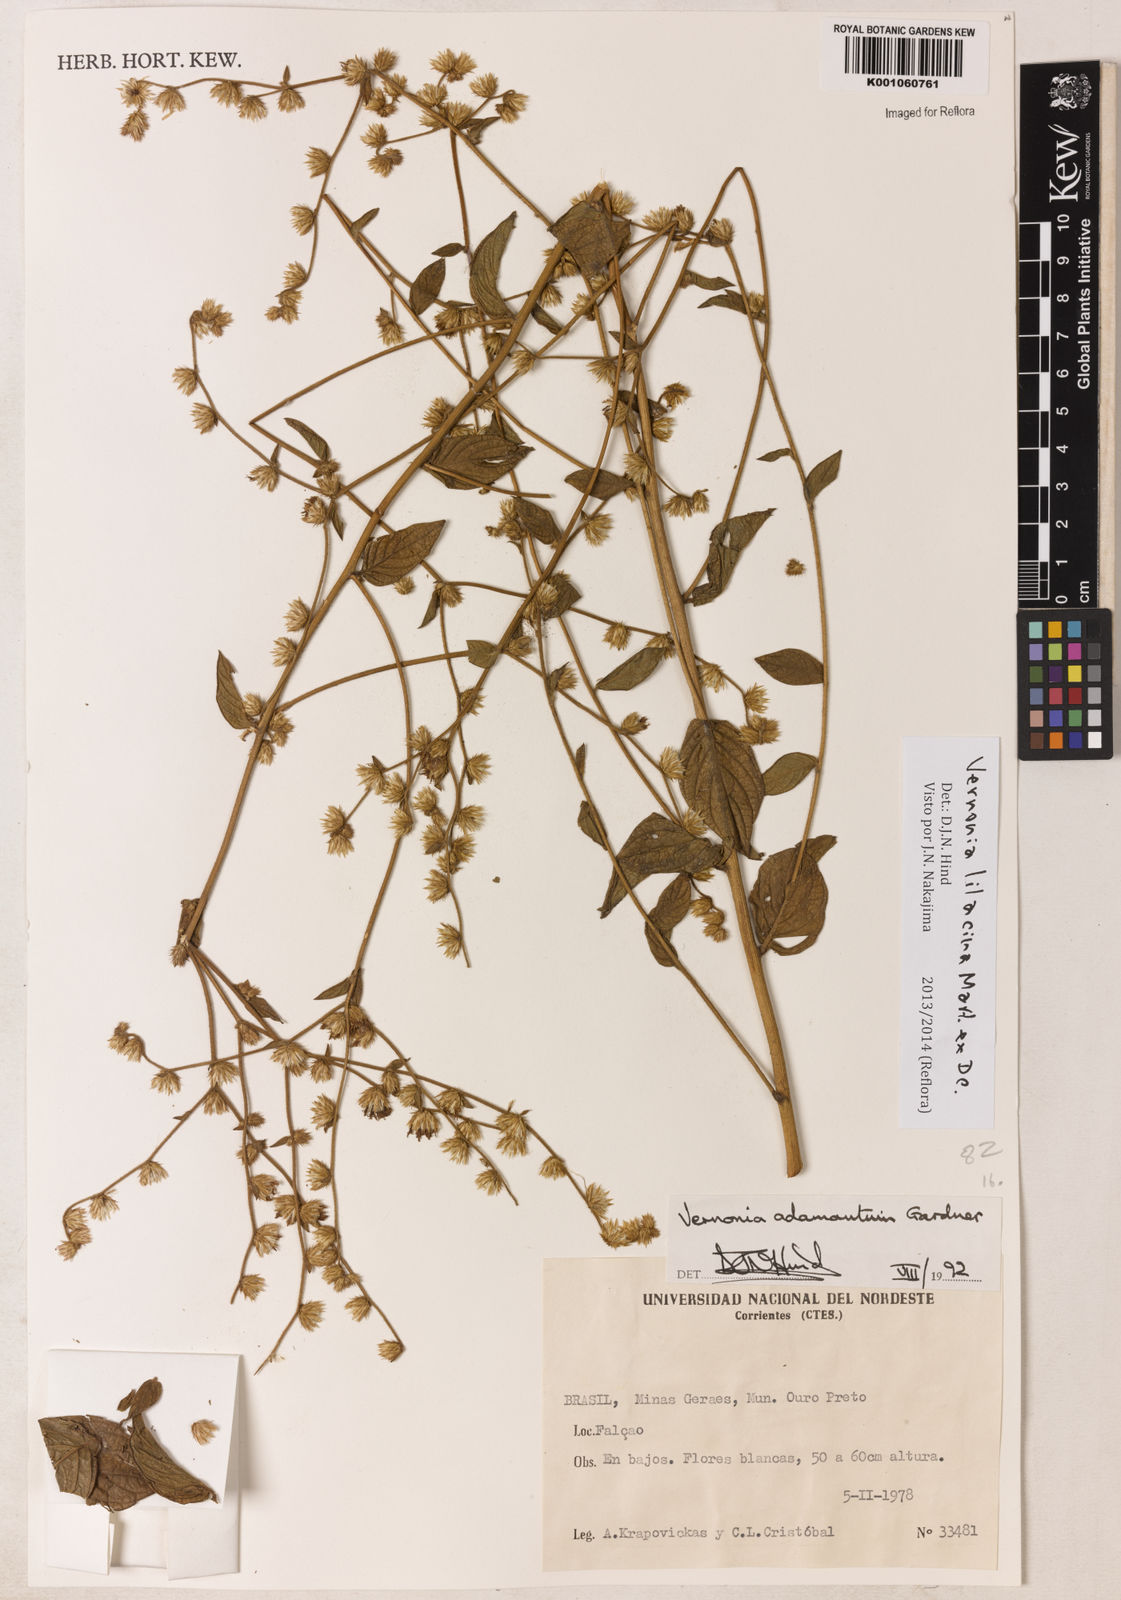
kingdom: Plantae
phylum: Tracheophyta
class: Magnoliopsida
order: Asterales
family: Asteraceae
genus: Lepidaploa
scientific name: Lepidaploa lilacina
